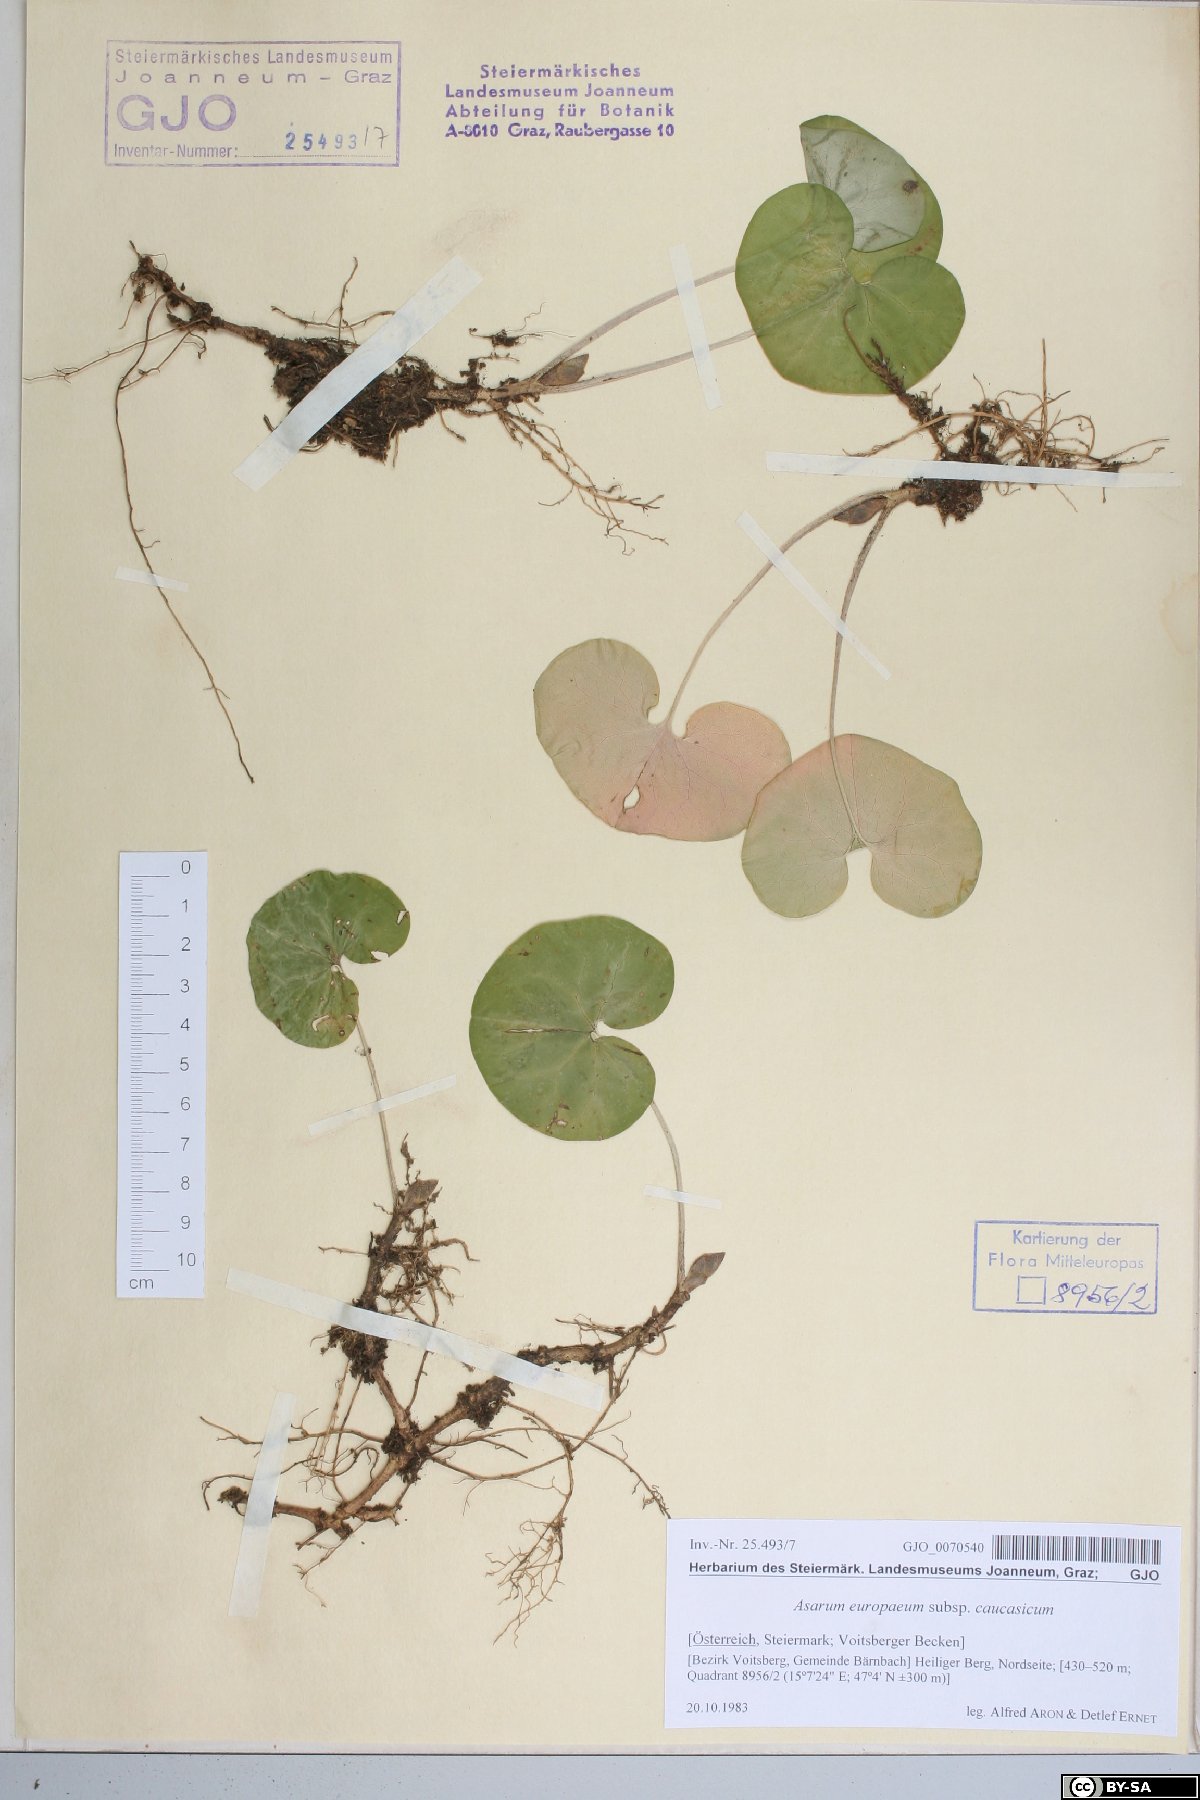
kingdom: Plantae
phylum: Tracheophyta
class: Magnoliopsida
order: Piperales
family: Aristolochiaceae
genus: Asarum
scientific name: Asarum europaeum
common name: Asarabacca
